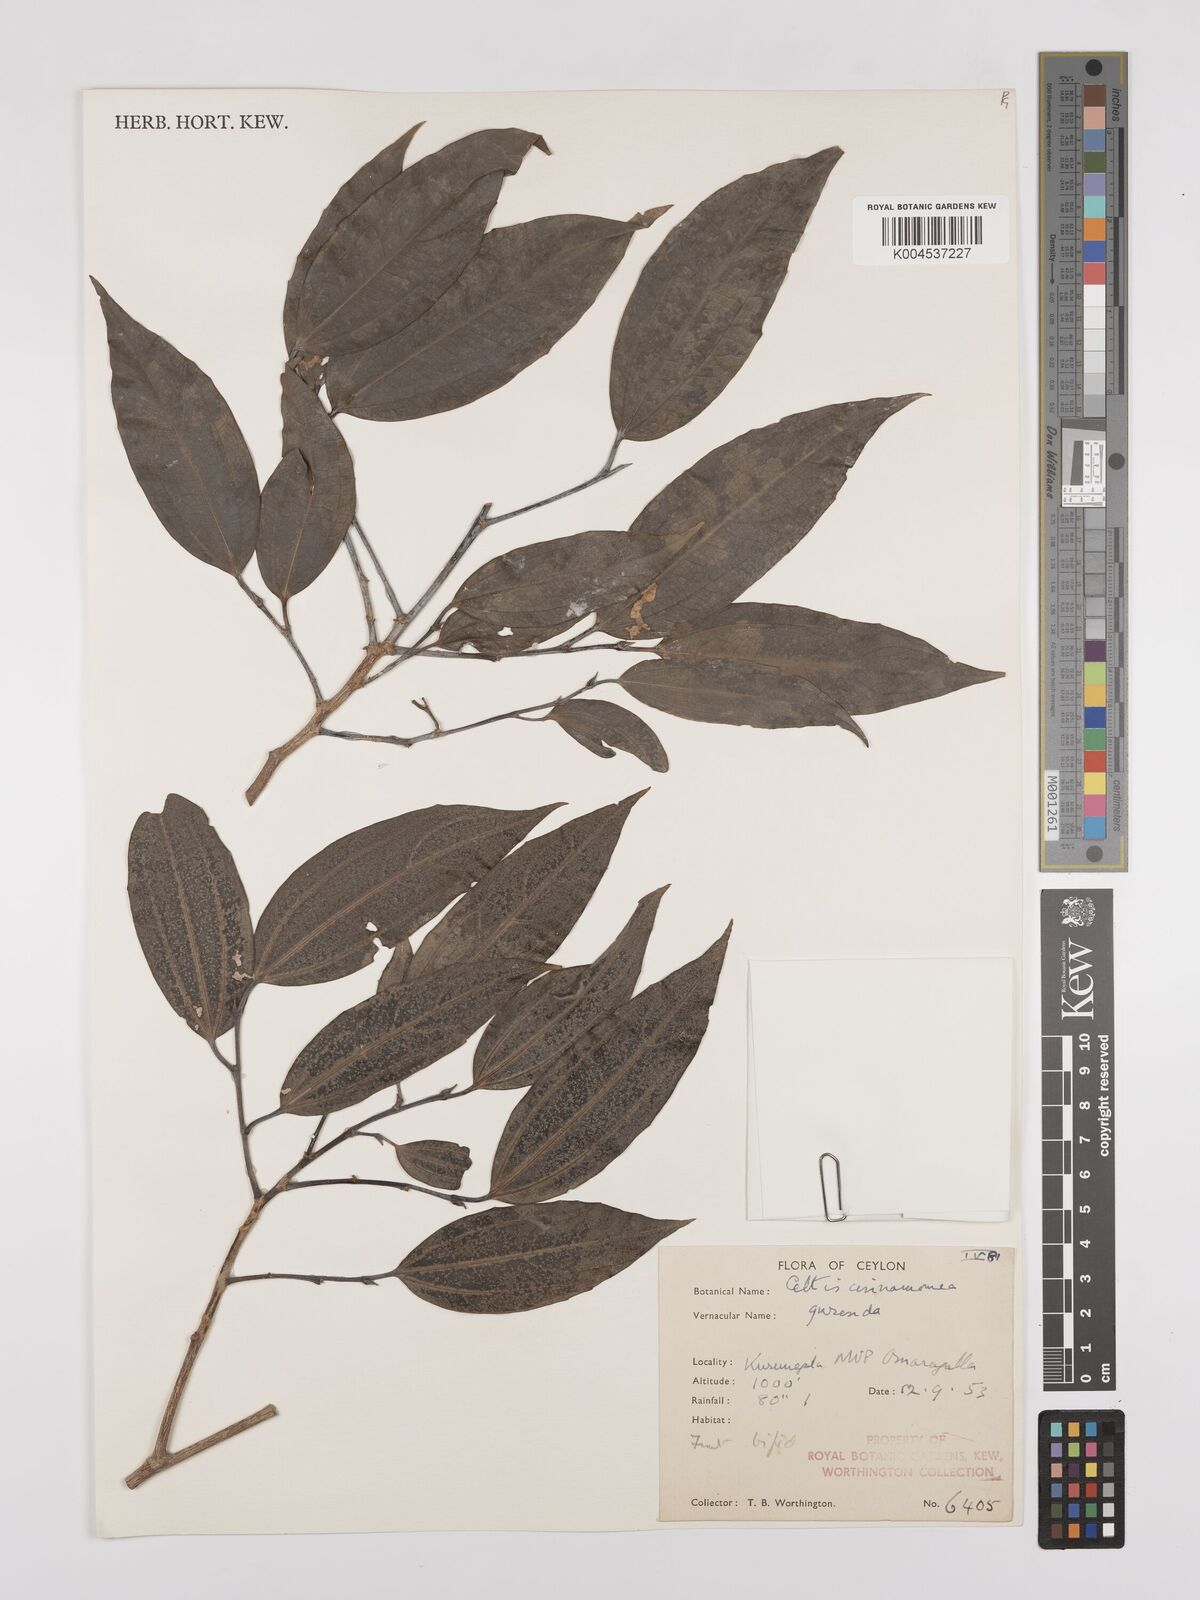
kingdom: Plantae
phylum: Tracheophyta
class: Magnoliopsida
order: Rosales
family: Cannabaceae
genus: Celtis
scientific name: Celtis timorensis
